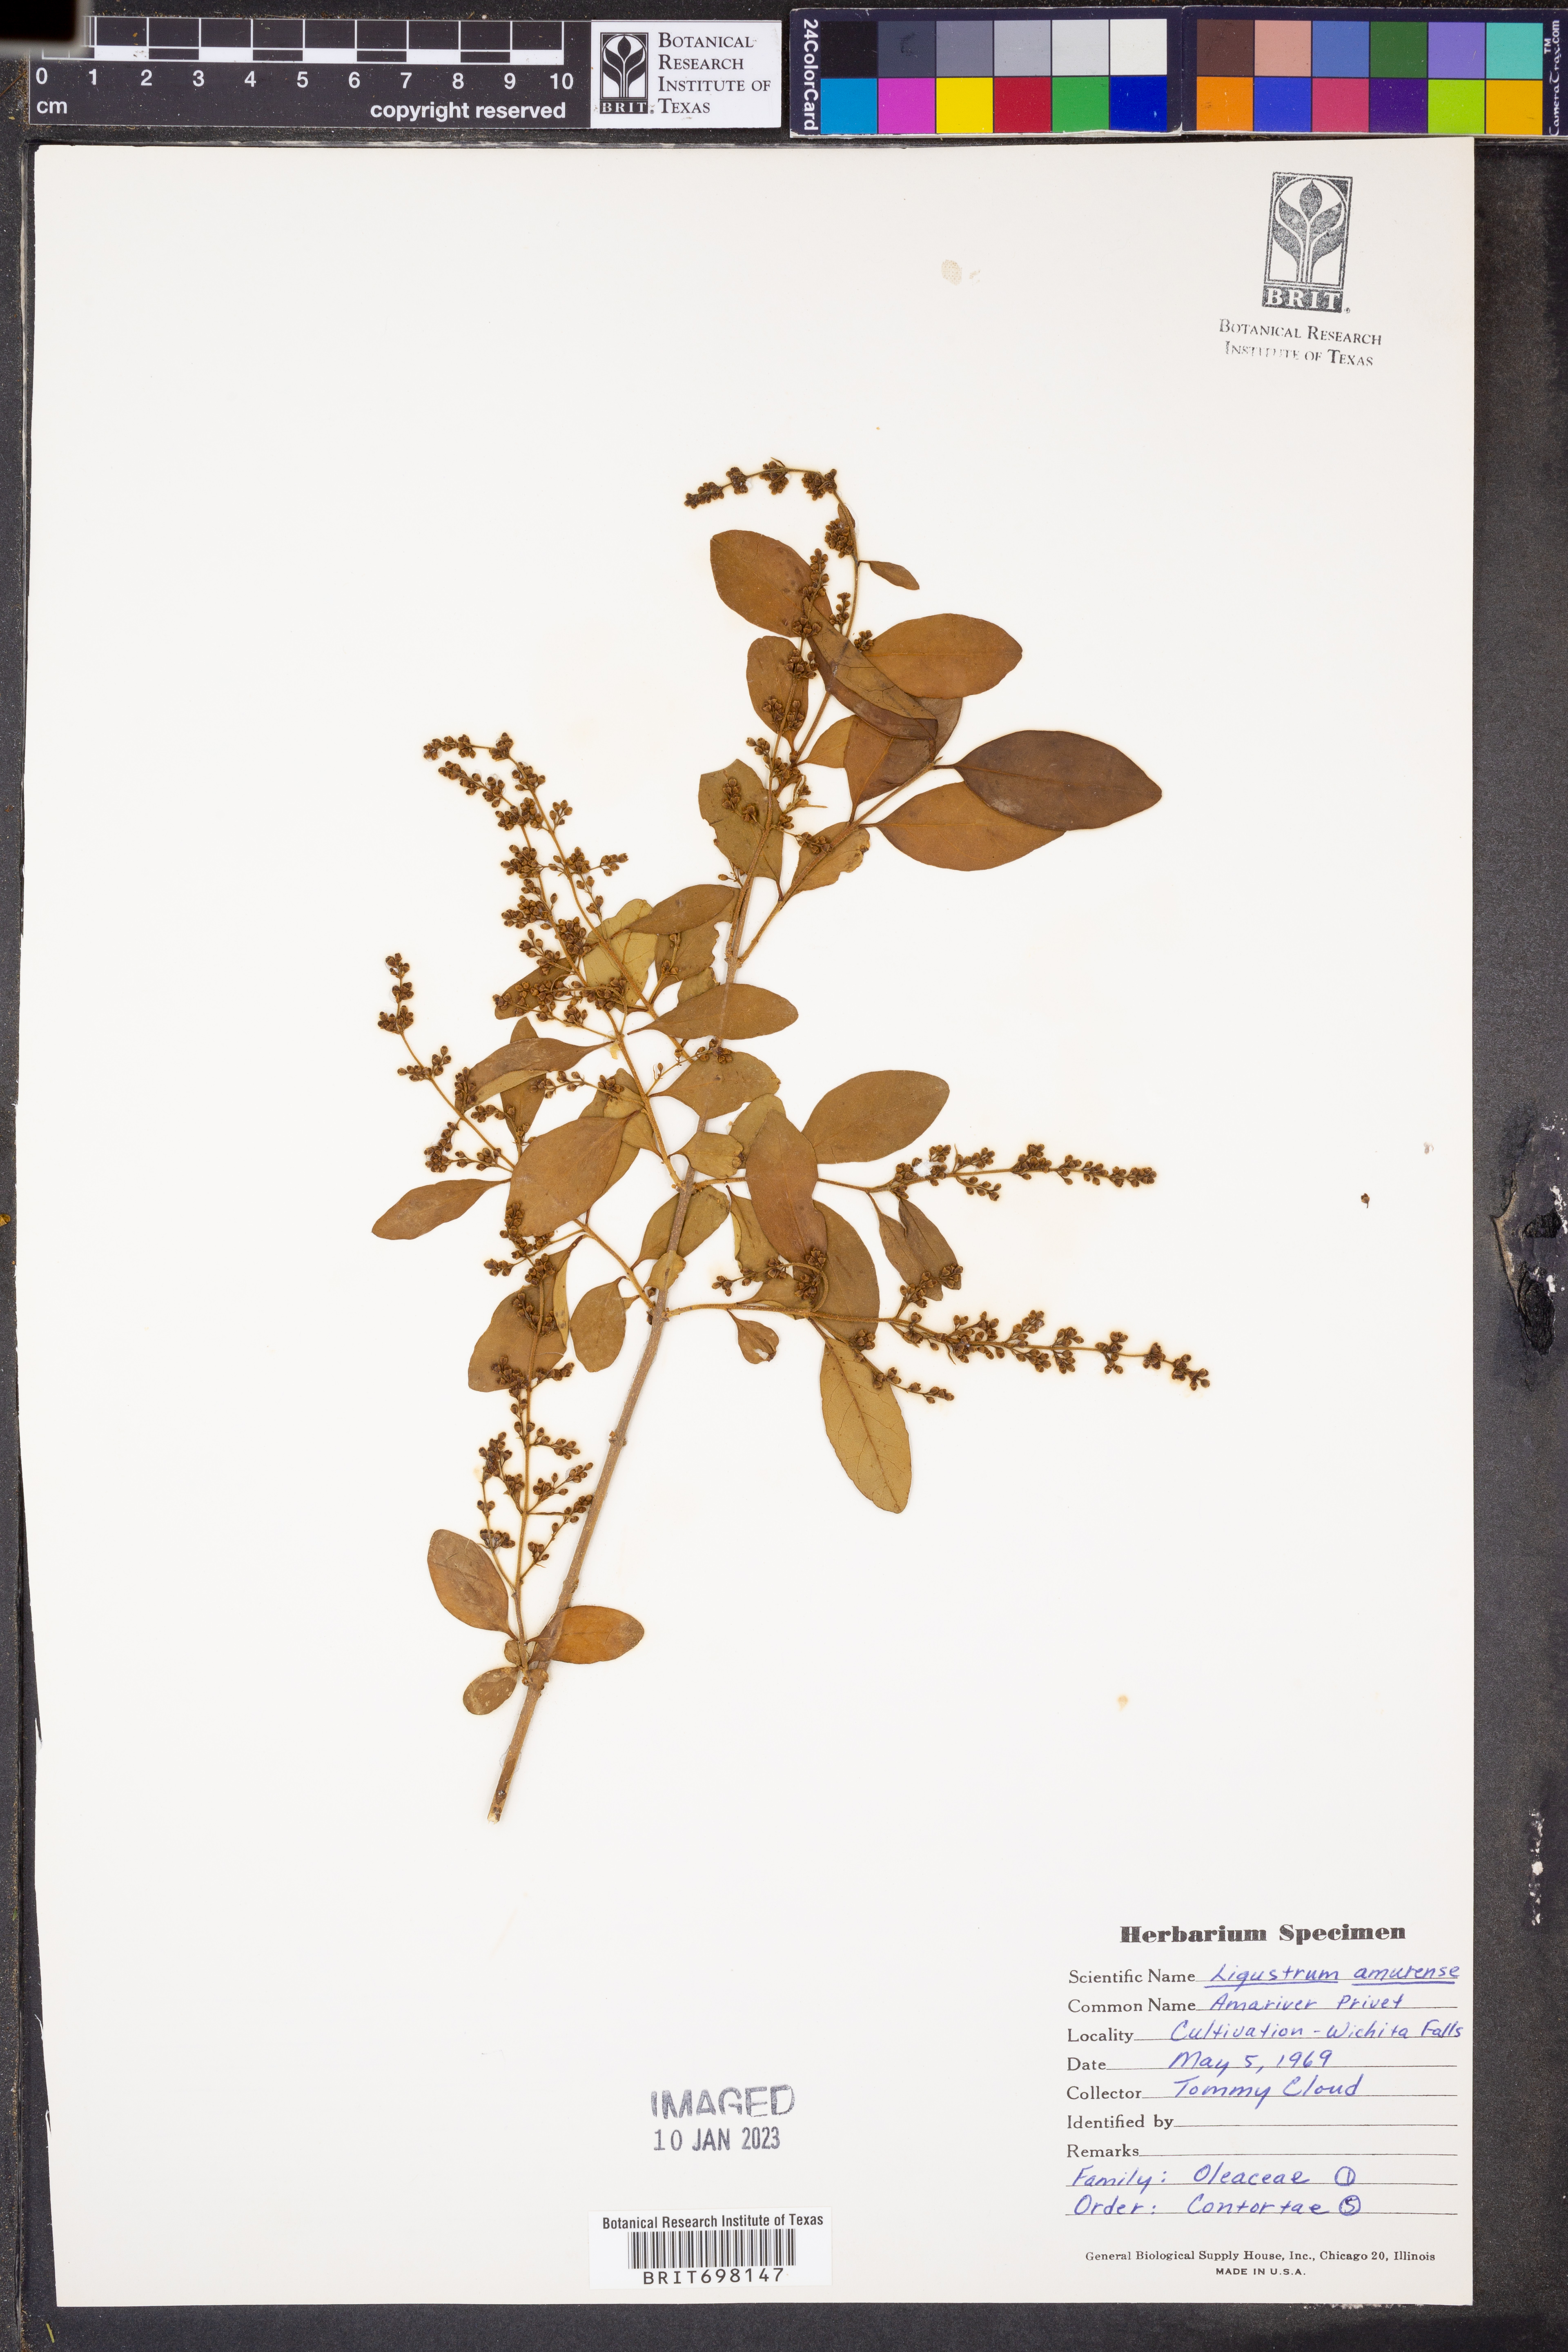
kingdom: Plantae
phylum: Tracheophyta
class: Magnoliopsida
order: Lamiales
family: Oleaceae
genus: Ligustrum
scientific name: Ligustrum obtusifolium
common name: Border privet
